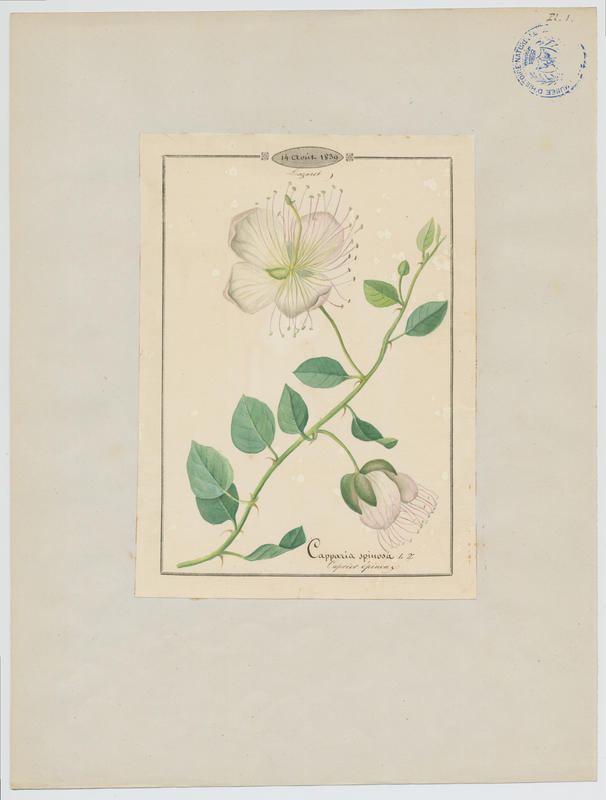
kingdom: Plantae
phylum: Tracheophyta
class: Magnoliopsida
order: Brassicales
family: Capparaceae
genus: Capparis
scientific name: Capparis spinosa
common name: Caper
